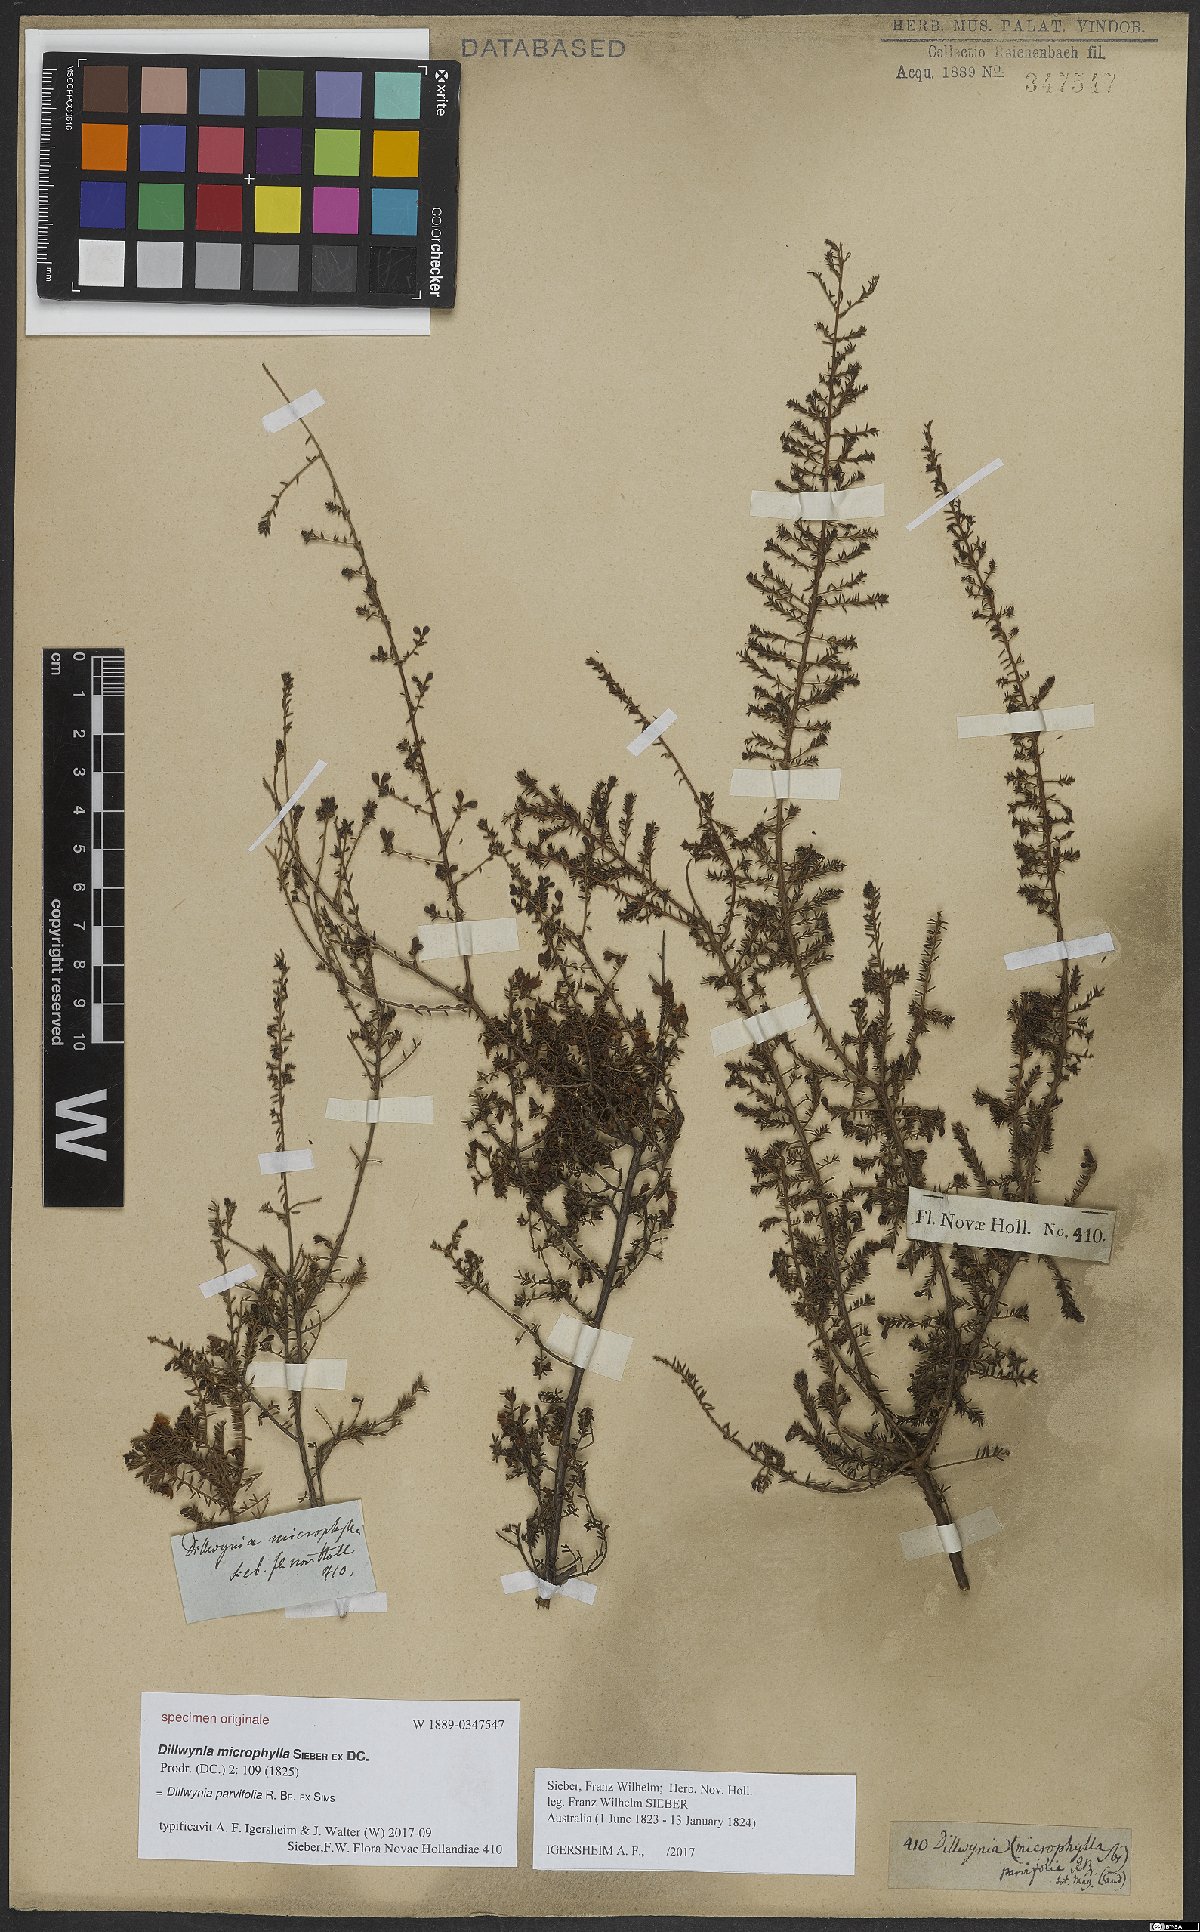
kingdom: Plantae
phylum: Tracheophyta
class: Magnoliopsida
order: Fabales
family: Fabaceae
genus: Dillwynia
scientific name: Dillwynia parvifolia
